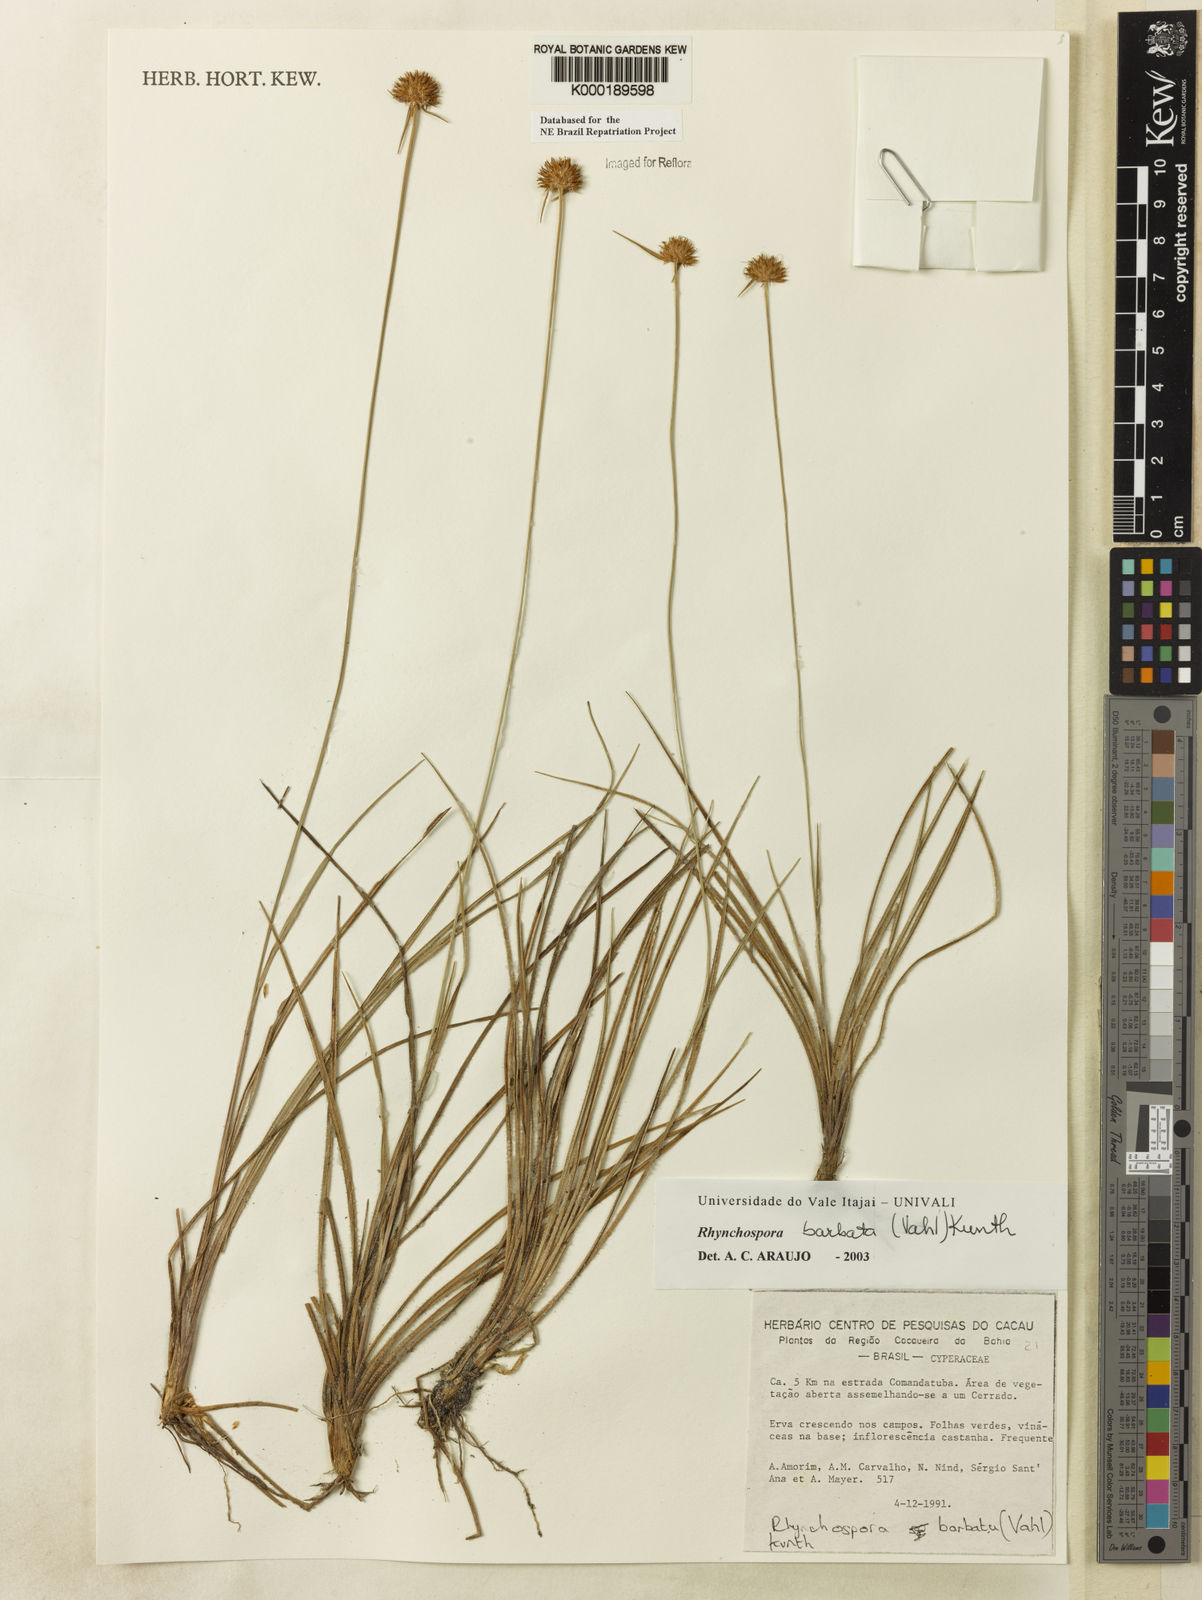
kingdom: Plantae
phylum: Tracheophyta
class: Liliopsida
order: Poales
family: Cyperaceae
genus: Rhynchospora
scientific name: Rhynchospora barbata
